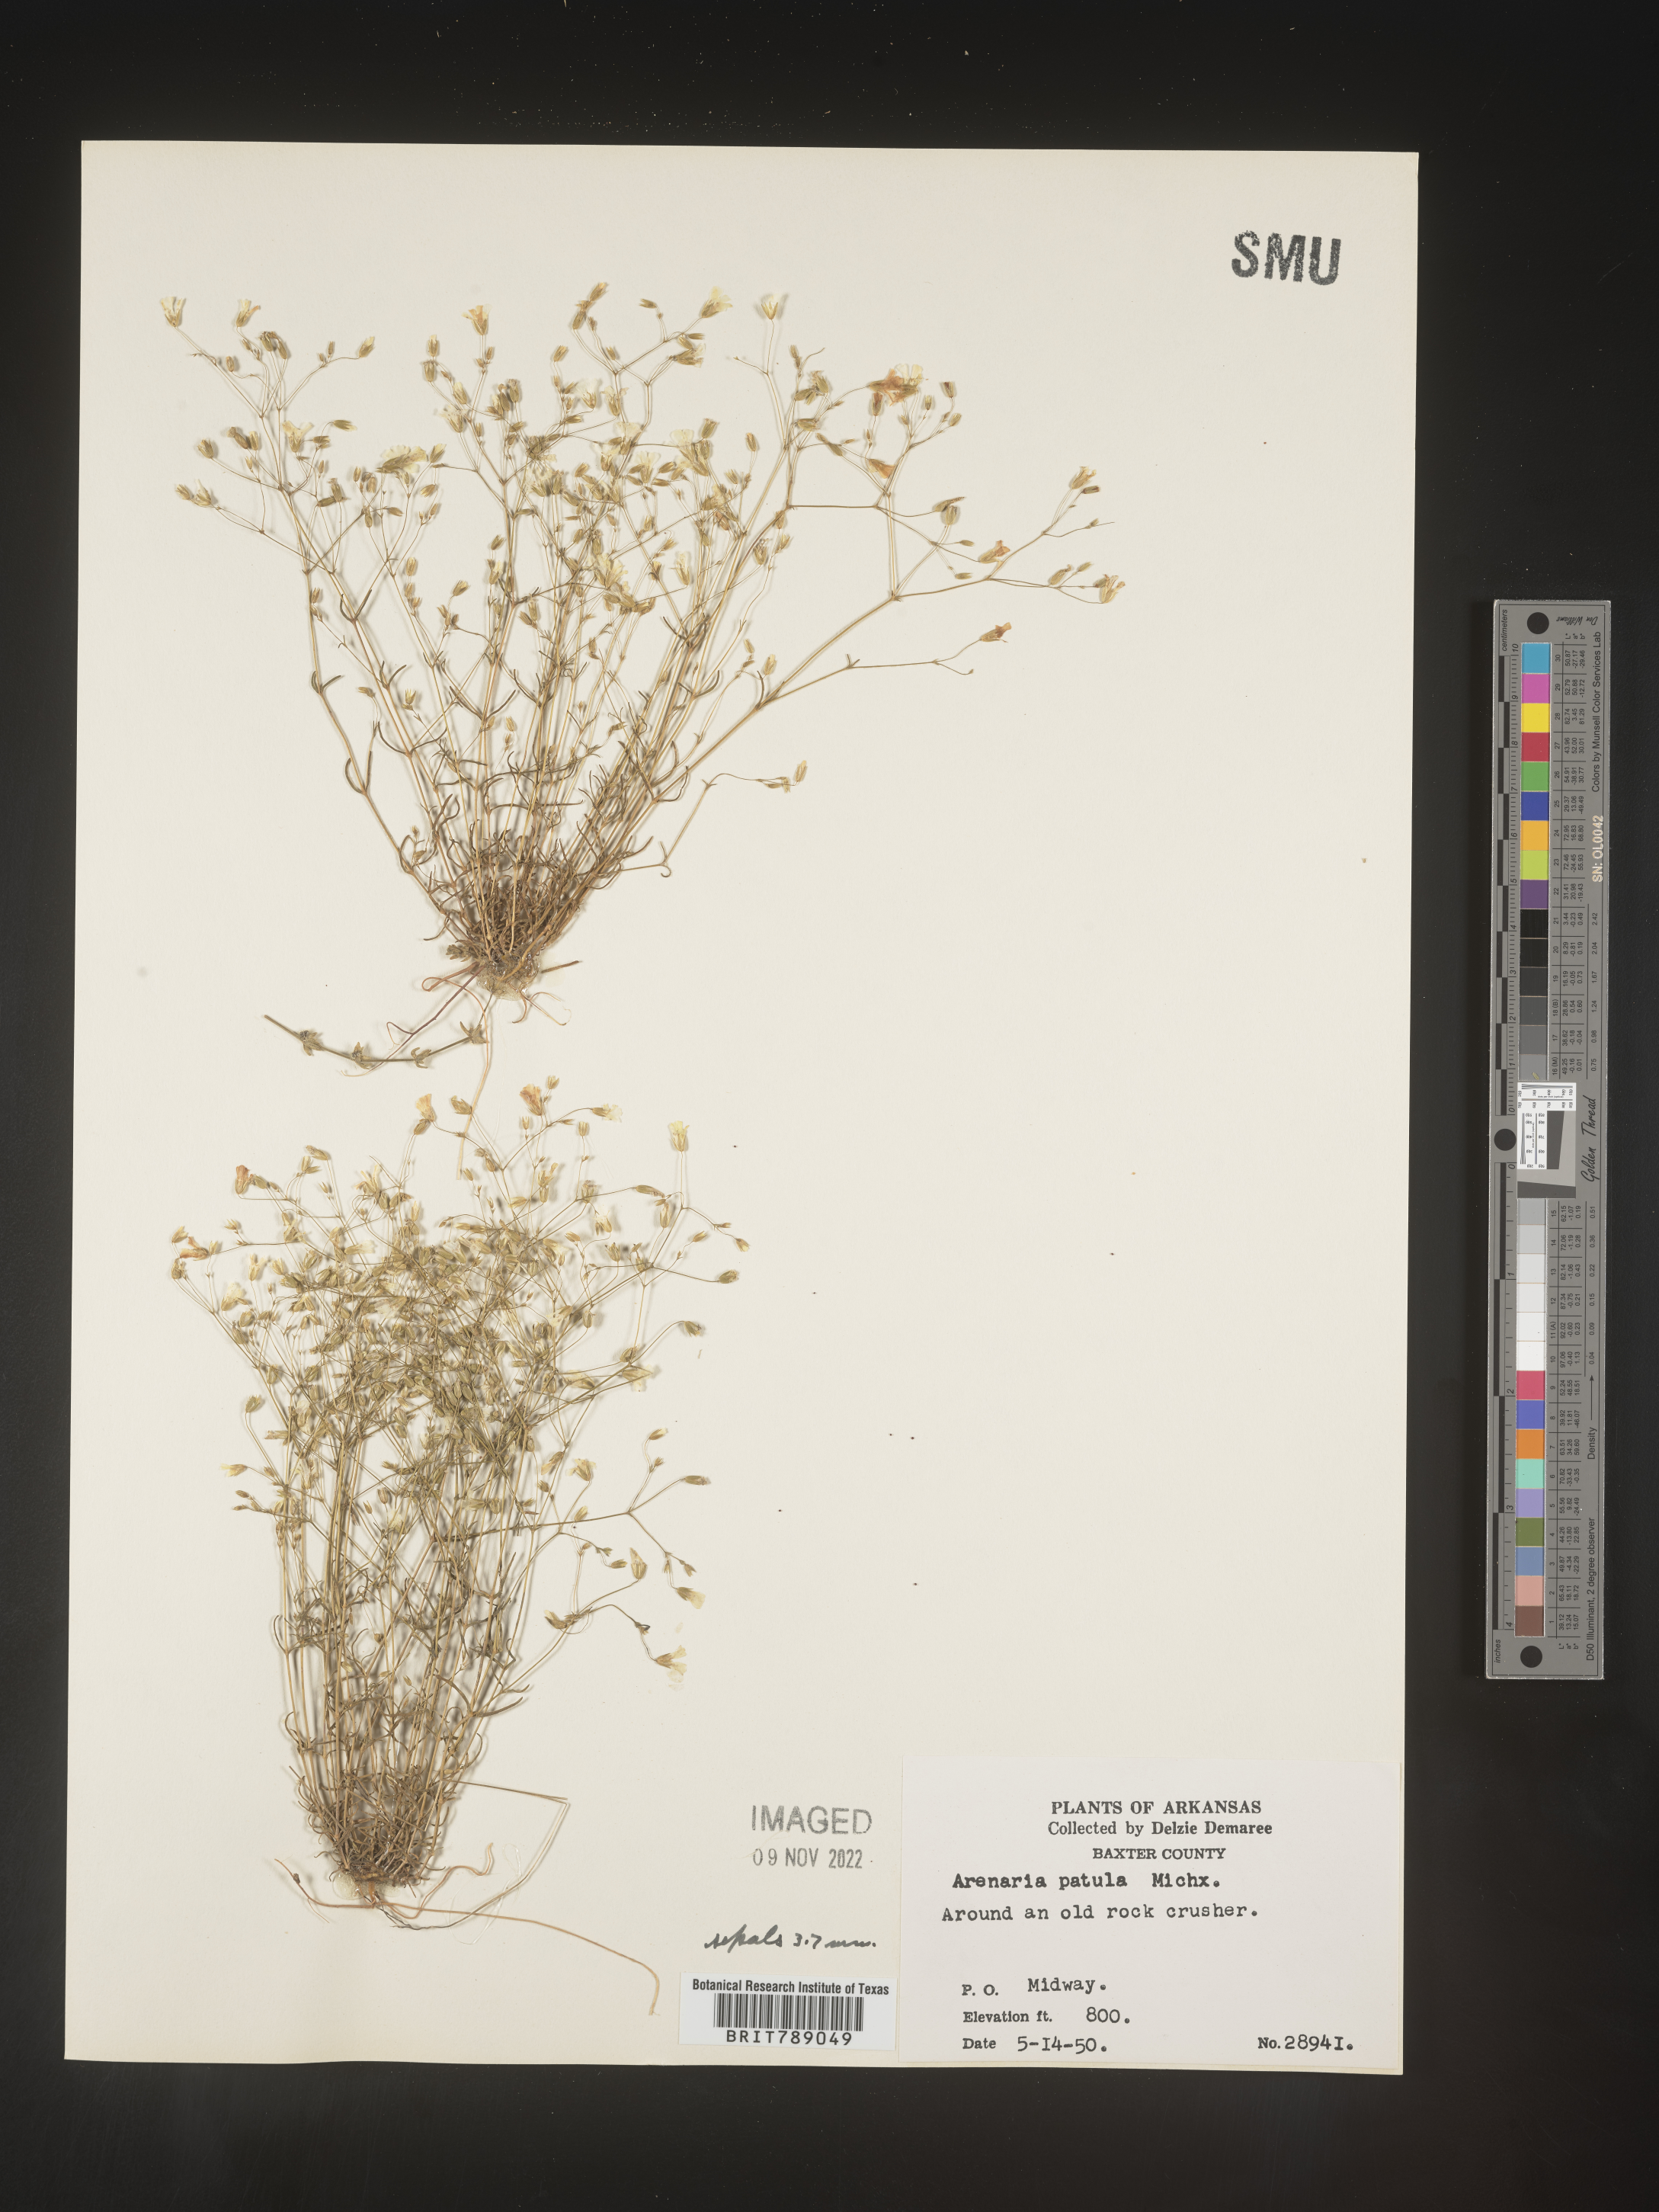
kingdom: Plantae
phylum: Tracheophyta
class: Magnoliopsida
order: Caryophyllales
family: Caryophyllaceae
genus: Mononeuria
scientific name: Mononeuria patula
